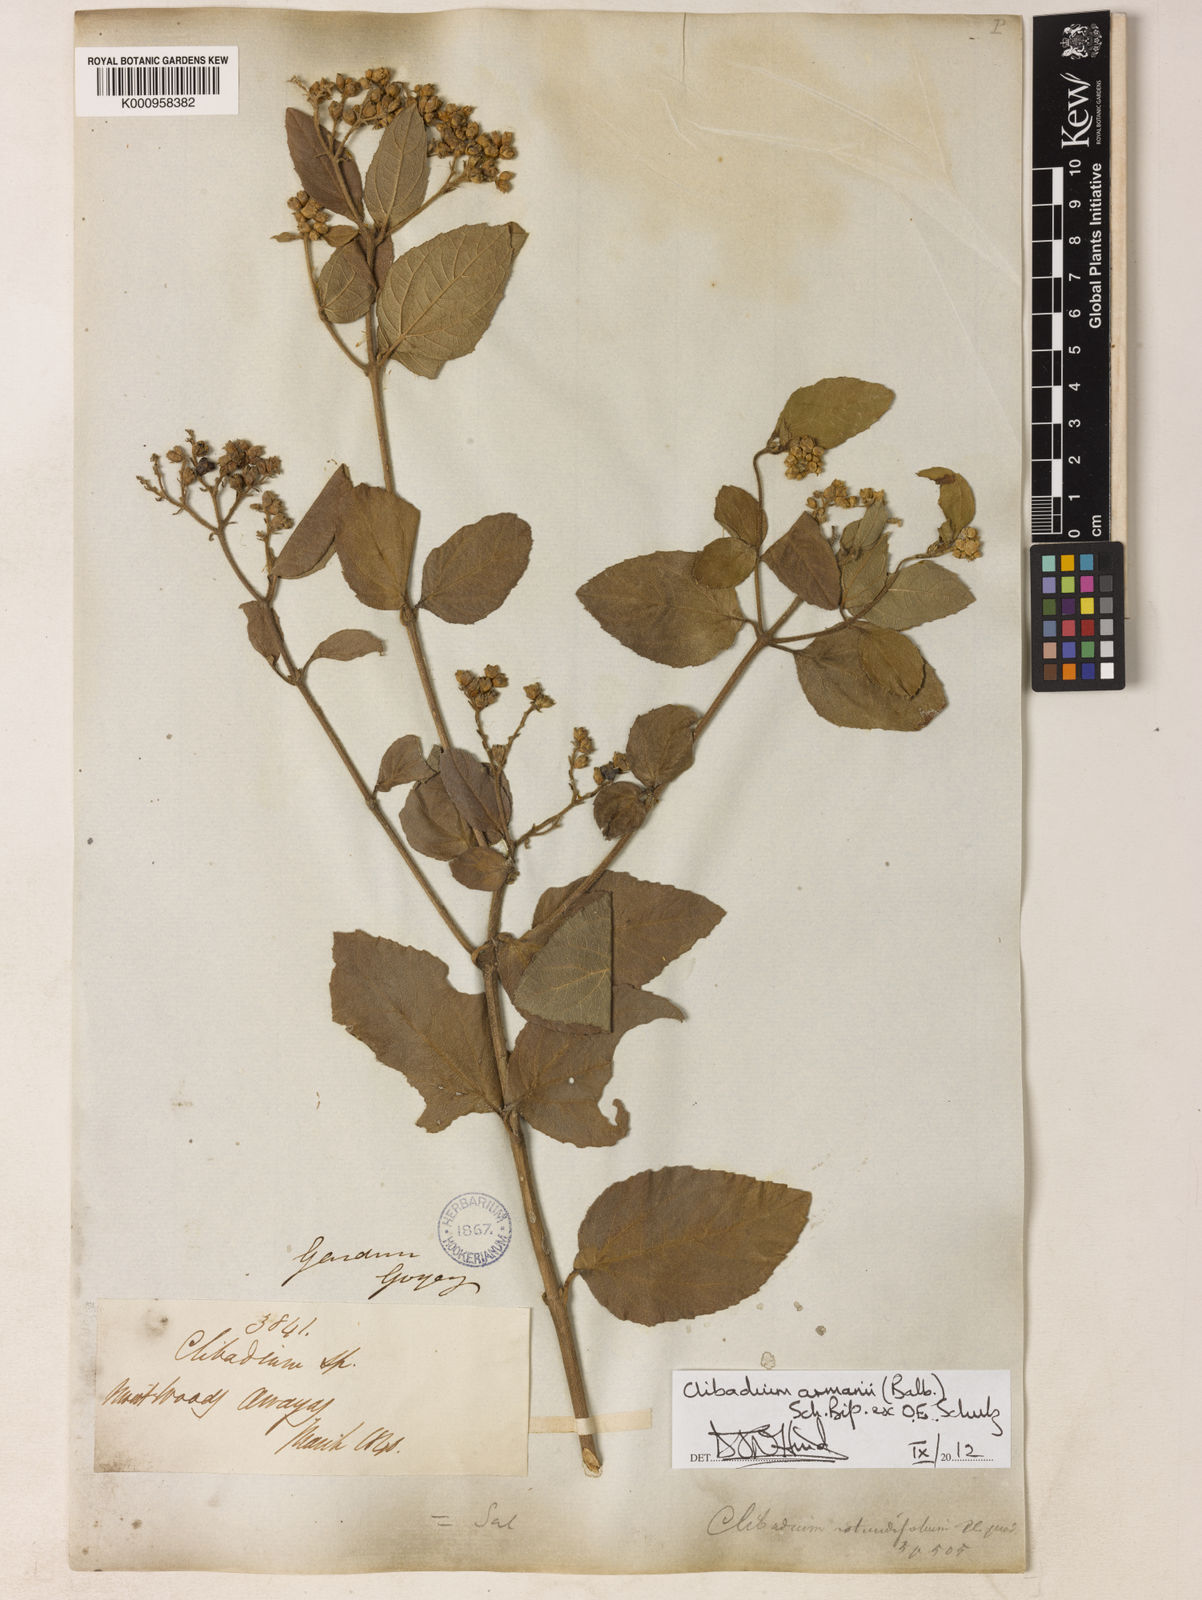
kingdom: Plantae
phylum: Tracheophyta
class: Magnoliopsida
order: Asterales
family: Asteraceae
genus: Clibadium
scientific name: Clibadium armanii
